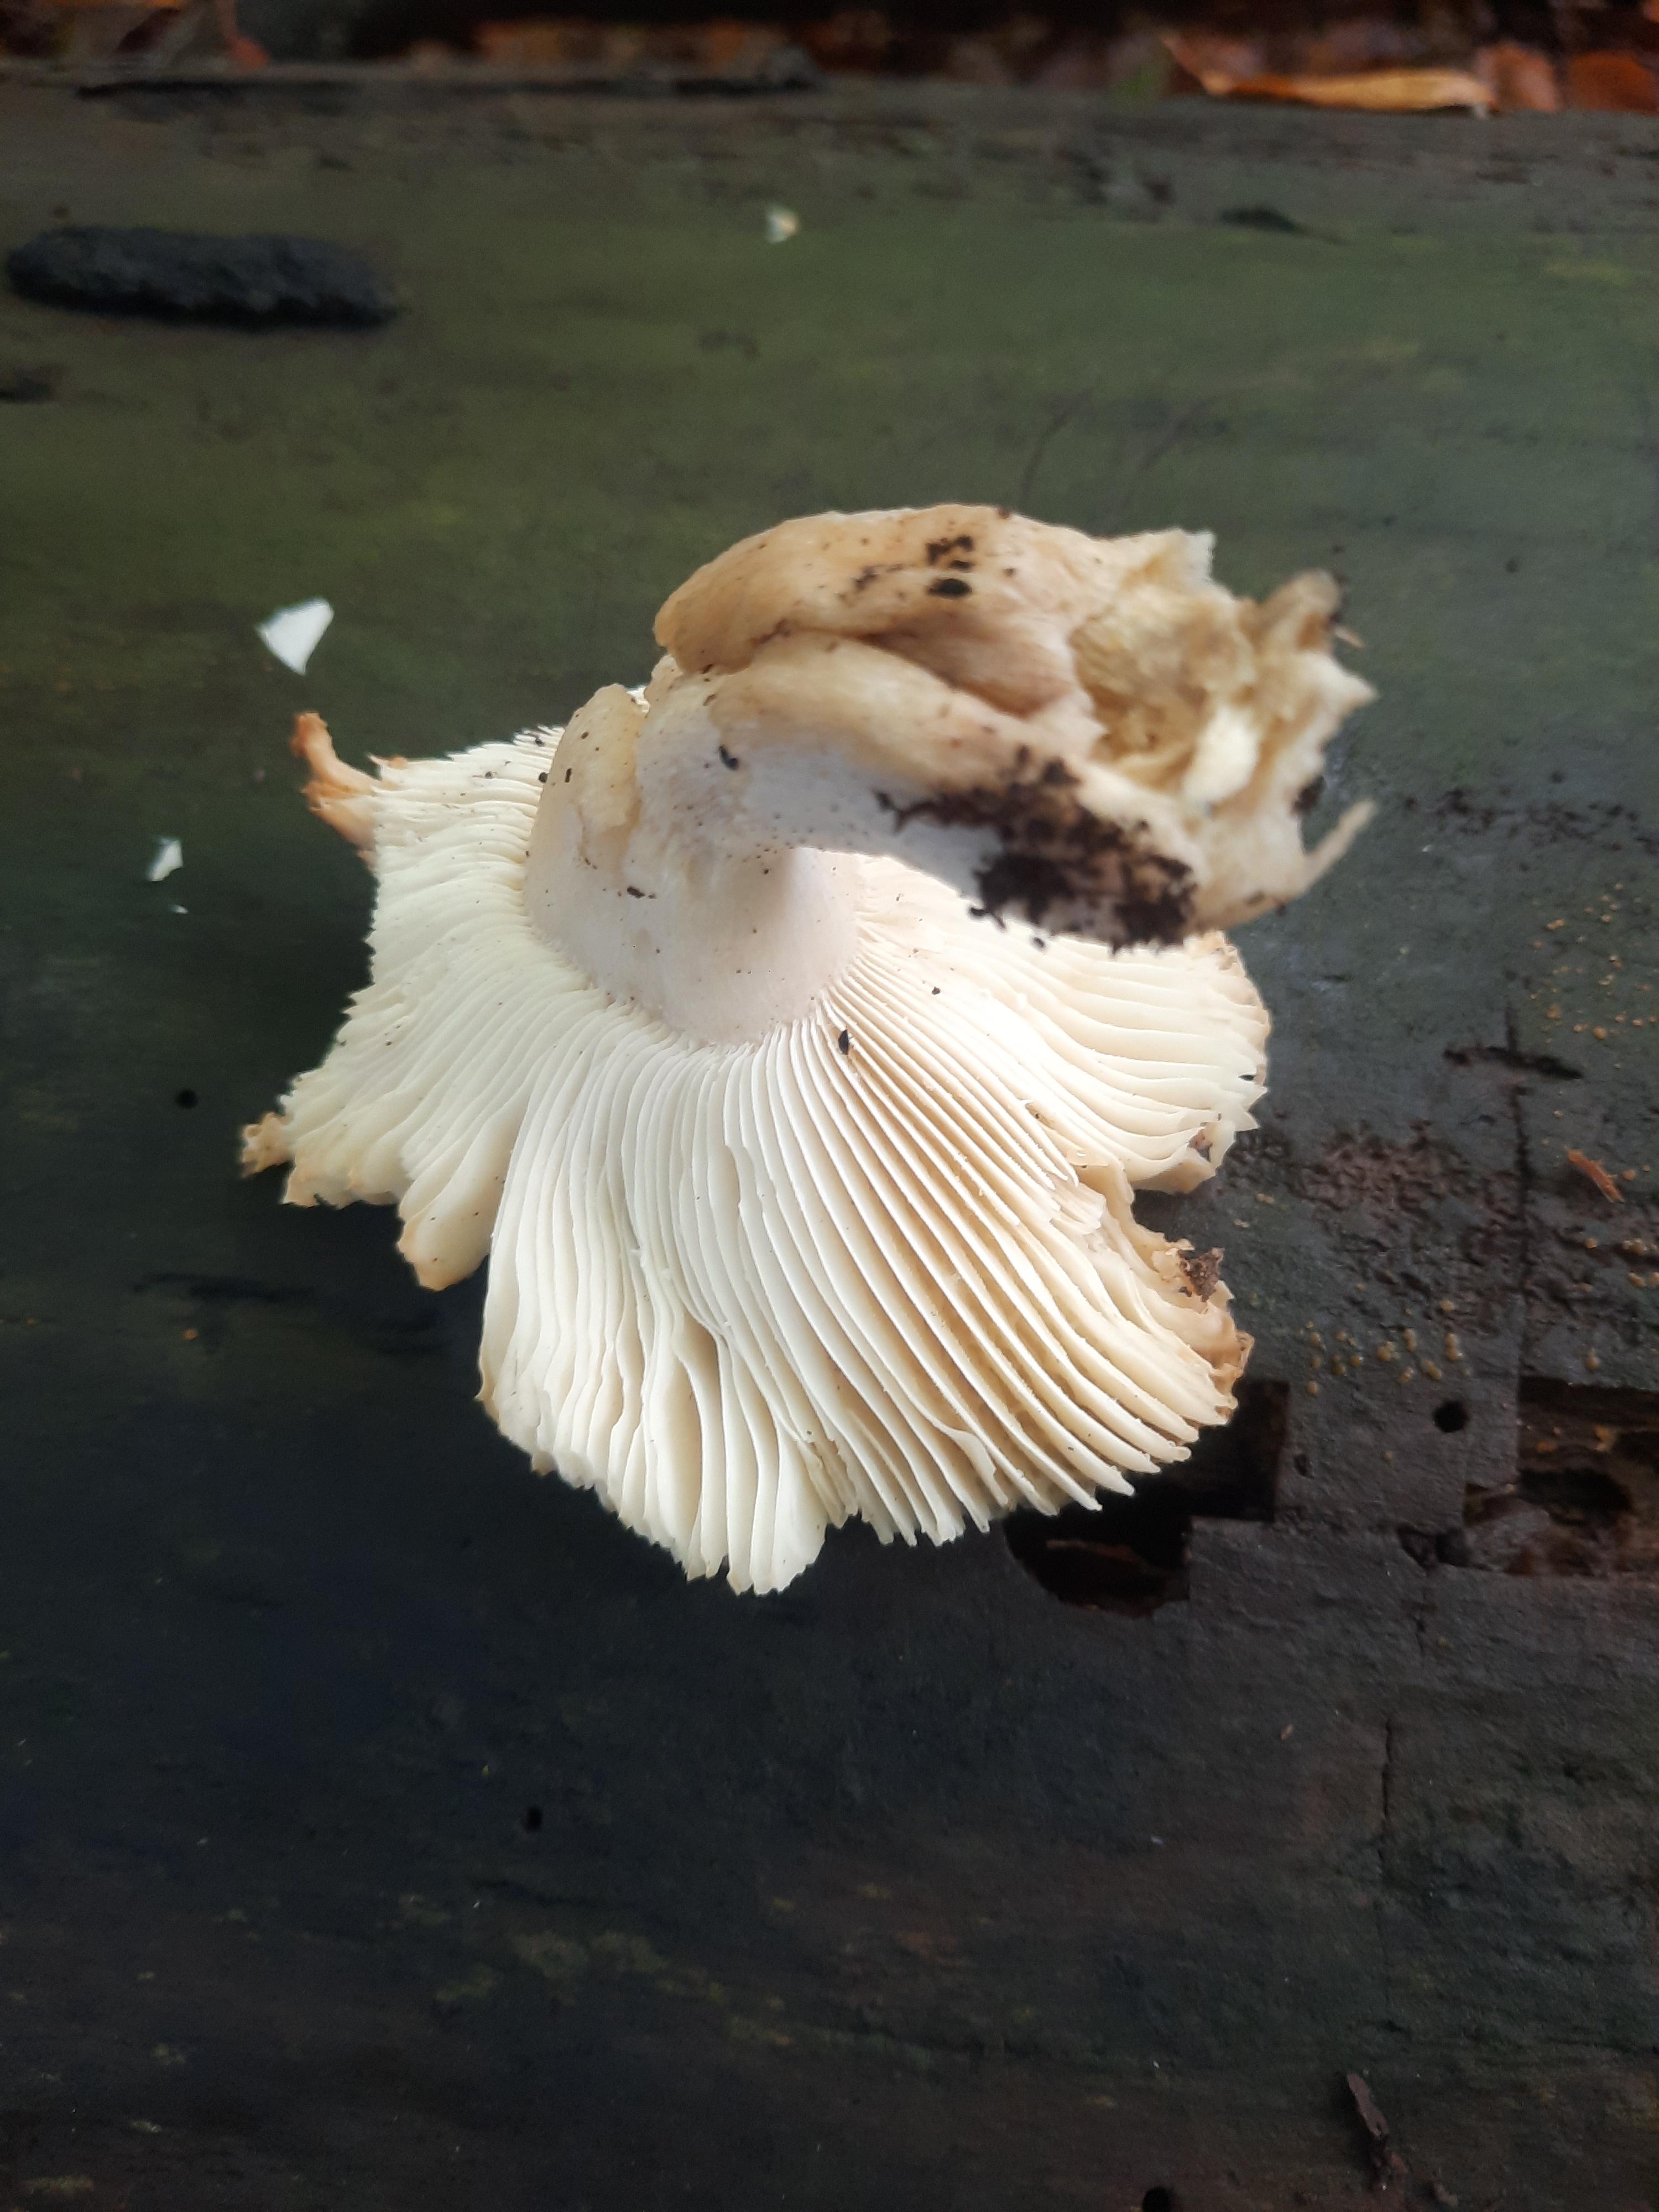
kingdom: Fungi
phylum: Basidiomycota
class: Agaricomycetes
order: Russulales
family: Russulaceae
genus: Russula
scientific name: Russula
